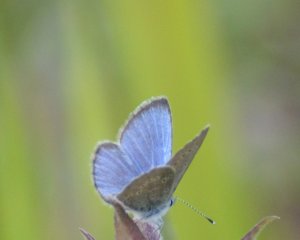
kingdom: Animalia
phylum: Arthropoda
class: Insecta
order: Lepidoptera
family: Lycaenidae
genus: Glaucopsyche
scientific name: Glaucopsyche lygdamus
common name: Silvery Blue
